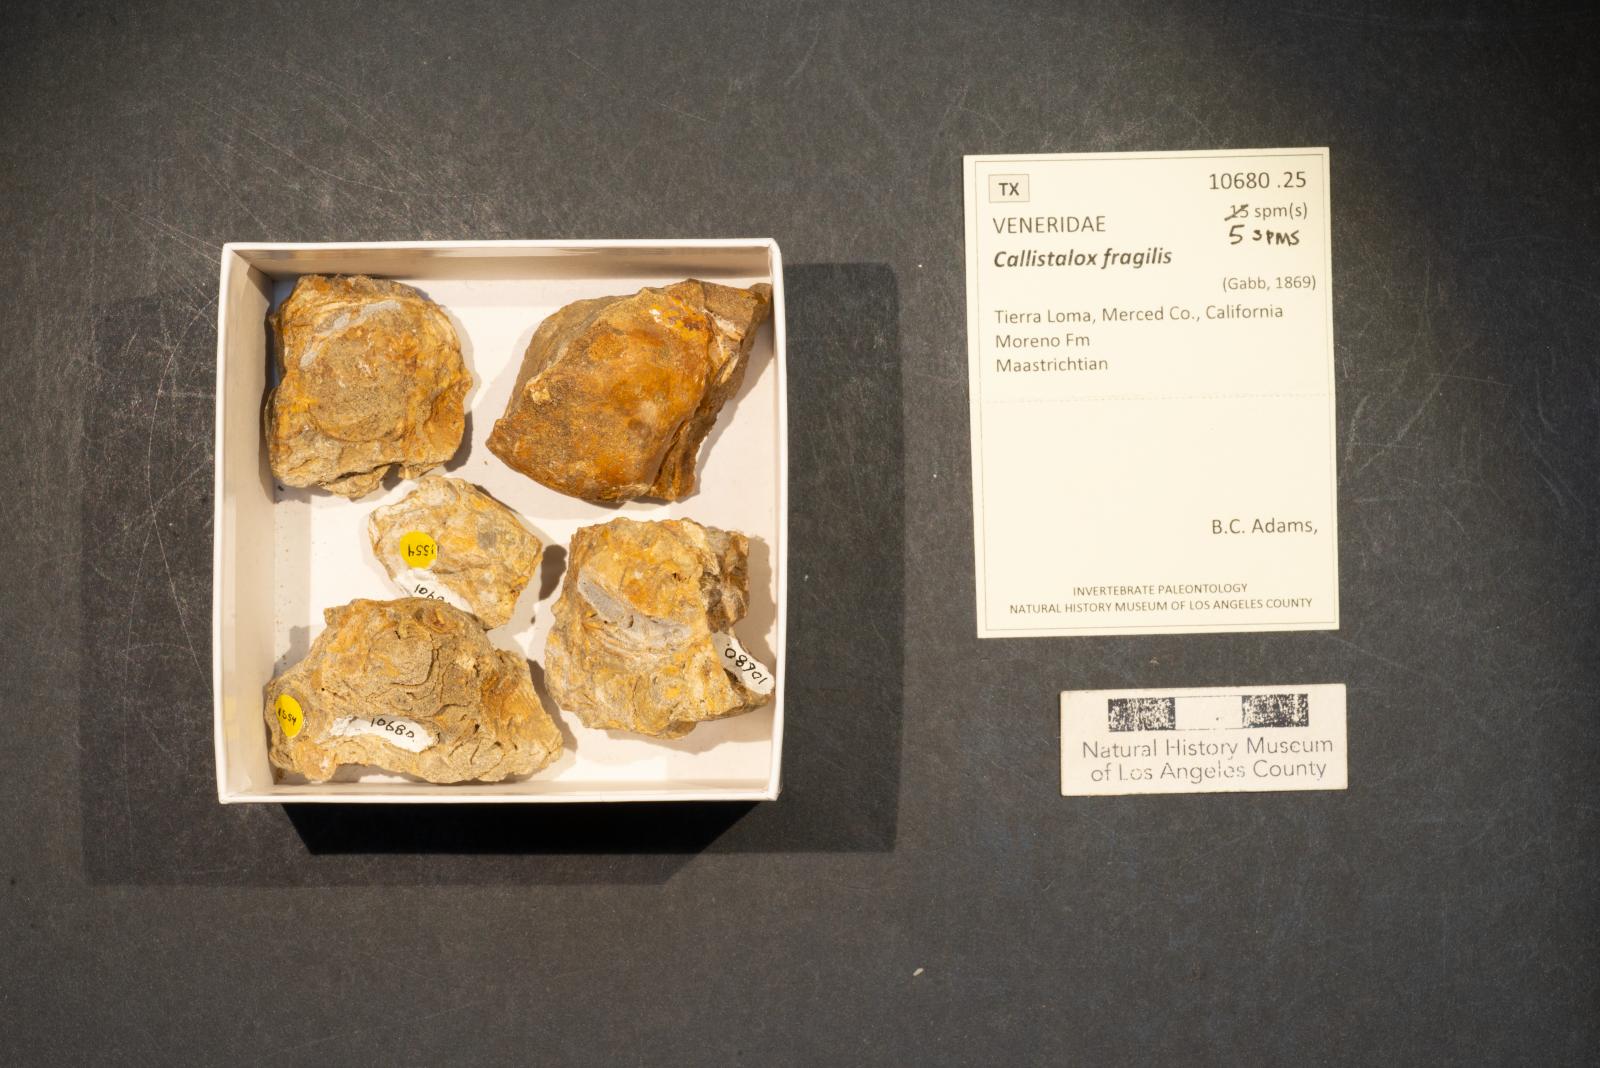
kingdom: Animalia
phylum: Mollusca
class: Bivalvia
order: Venerida
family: Veneridae
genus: Callistalox
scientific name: Callistalox Meretrix fragilis
